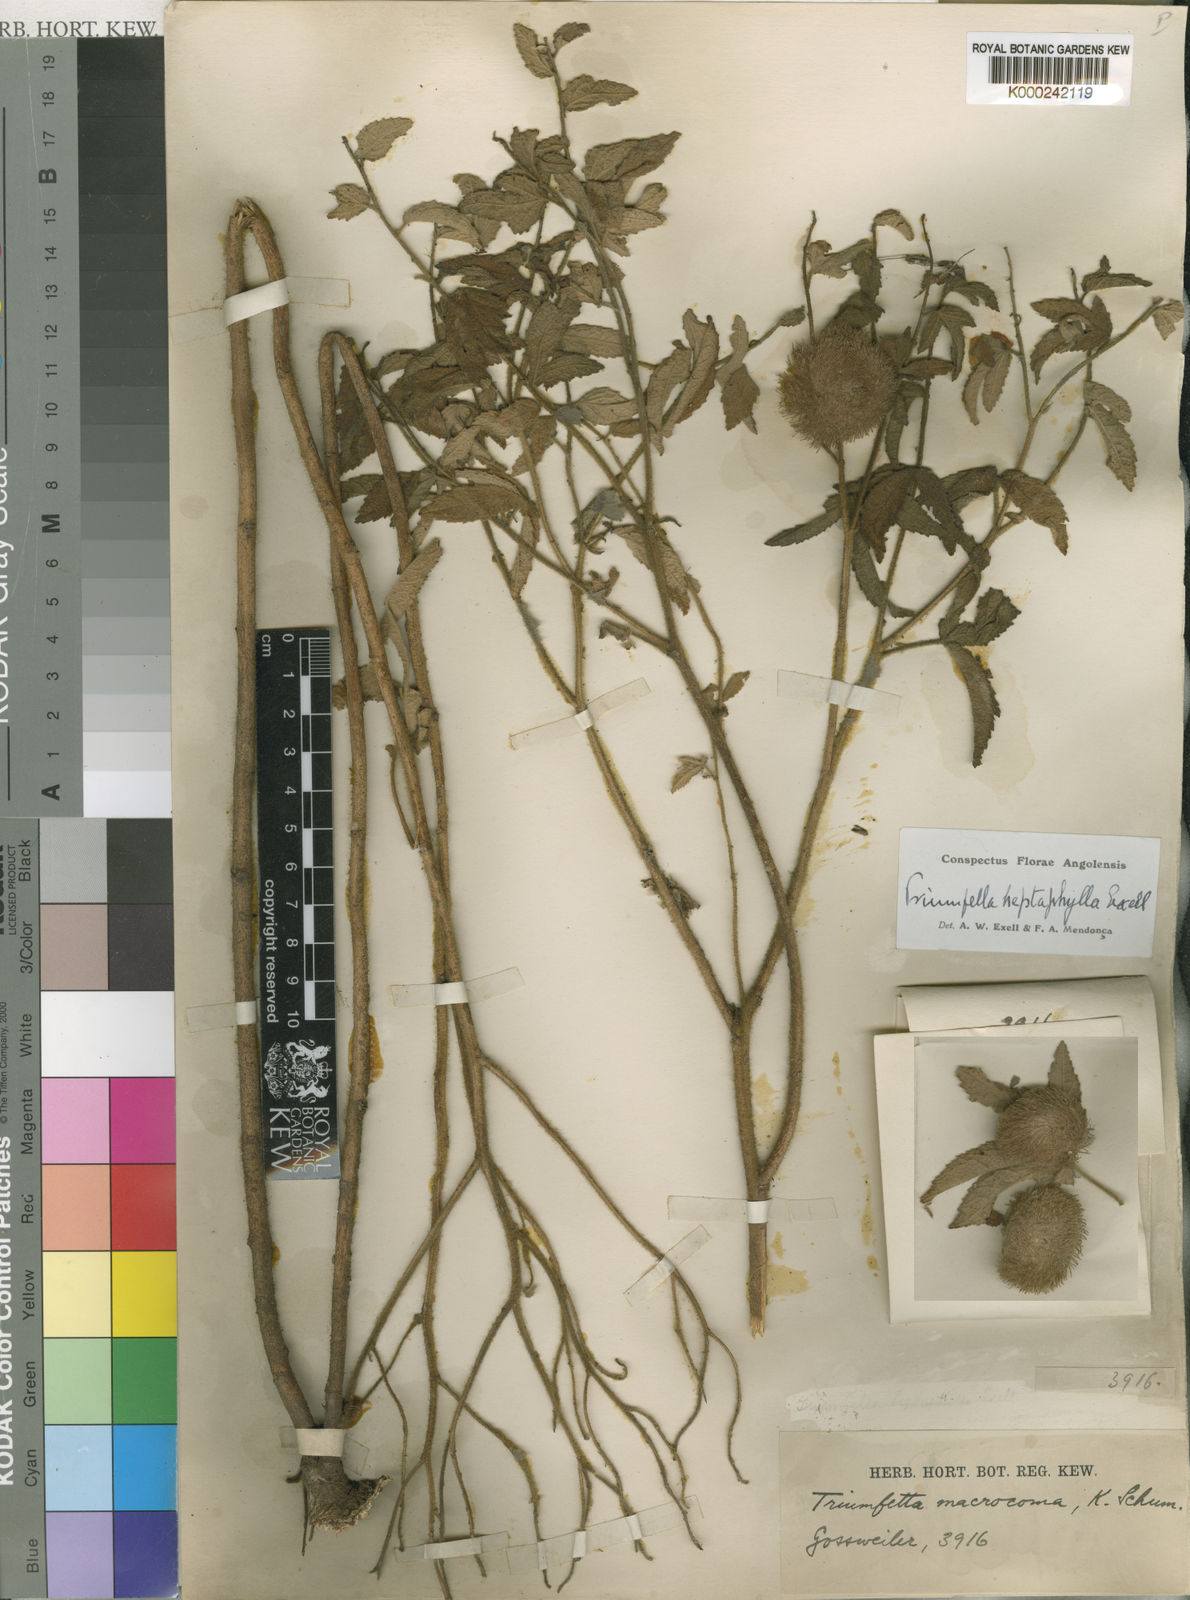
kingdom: Plantae
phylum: Tracheophyta
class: Magnoliopsida
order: Malvales
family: Malvaceae
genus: Triumfetta
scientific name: Triumfetta heptaphylla
